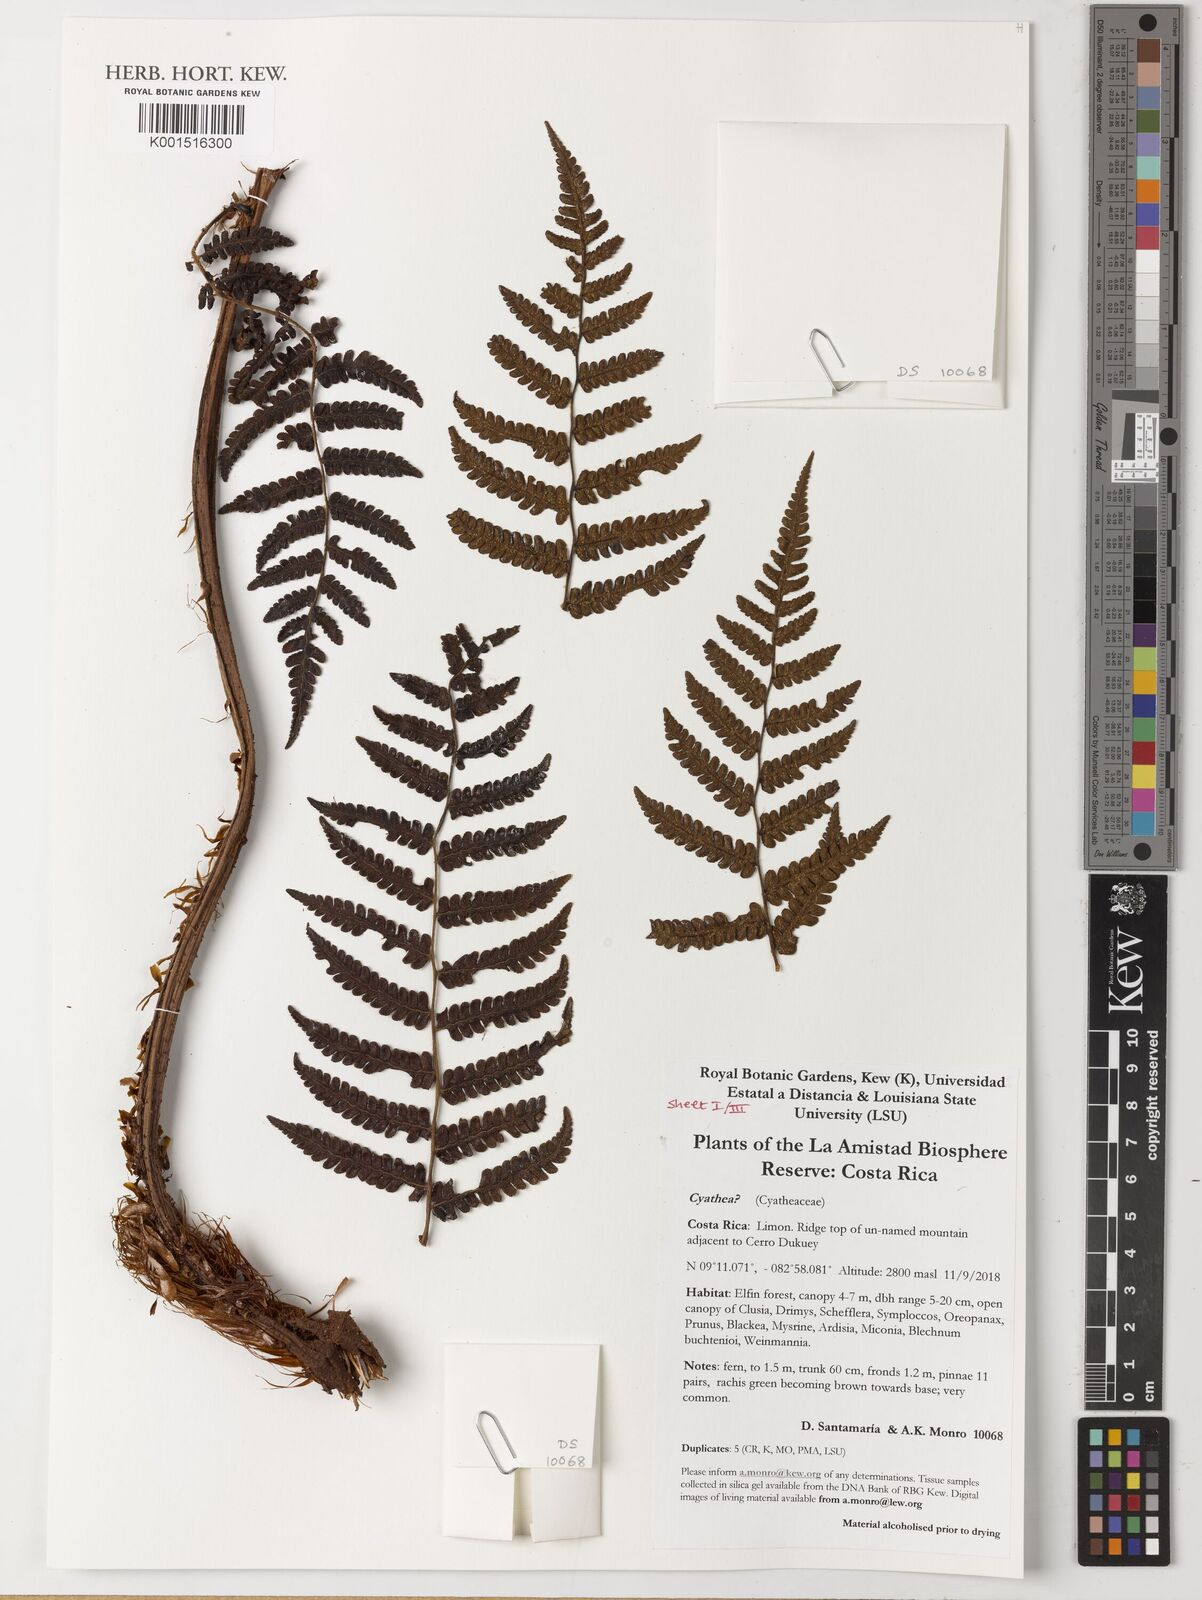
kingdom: Plantae
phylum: Tracheophyta
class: Polypodiopsida
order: Cyatheales
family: Cyatheaceae
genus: Cyathea
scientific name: Cyathea
